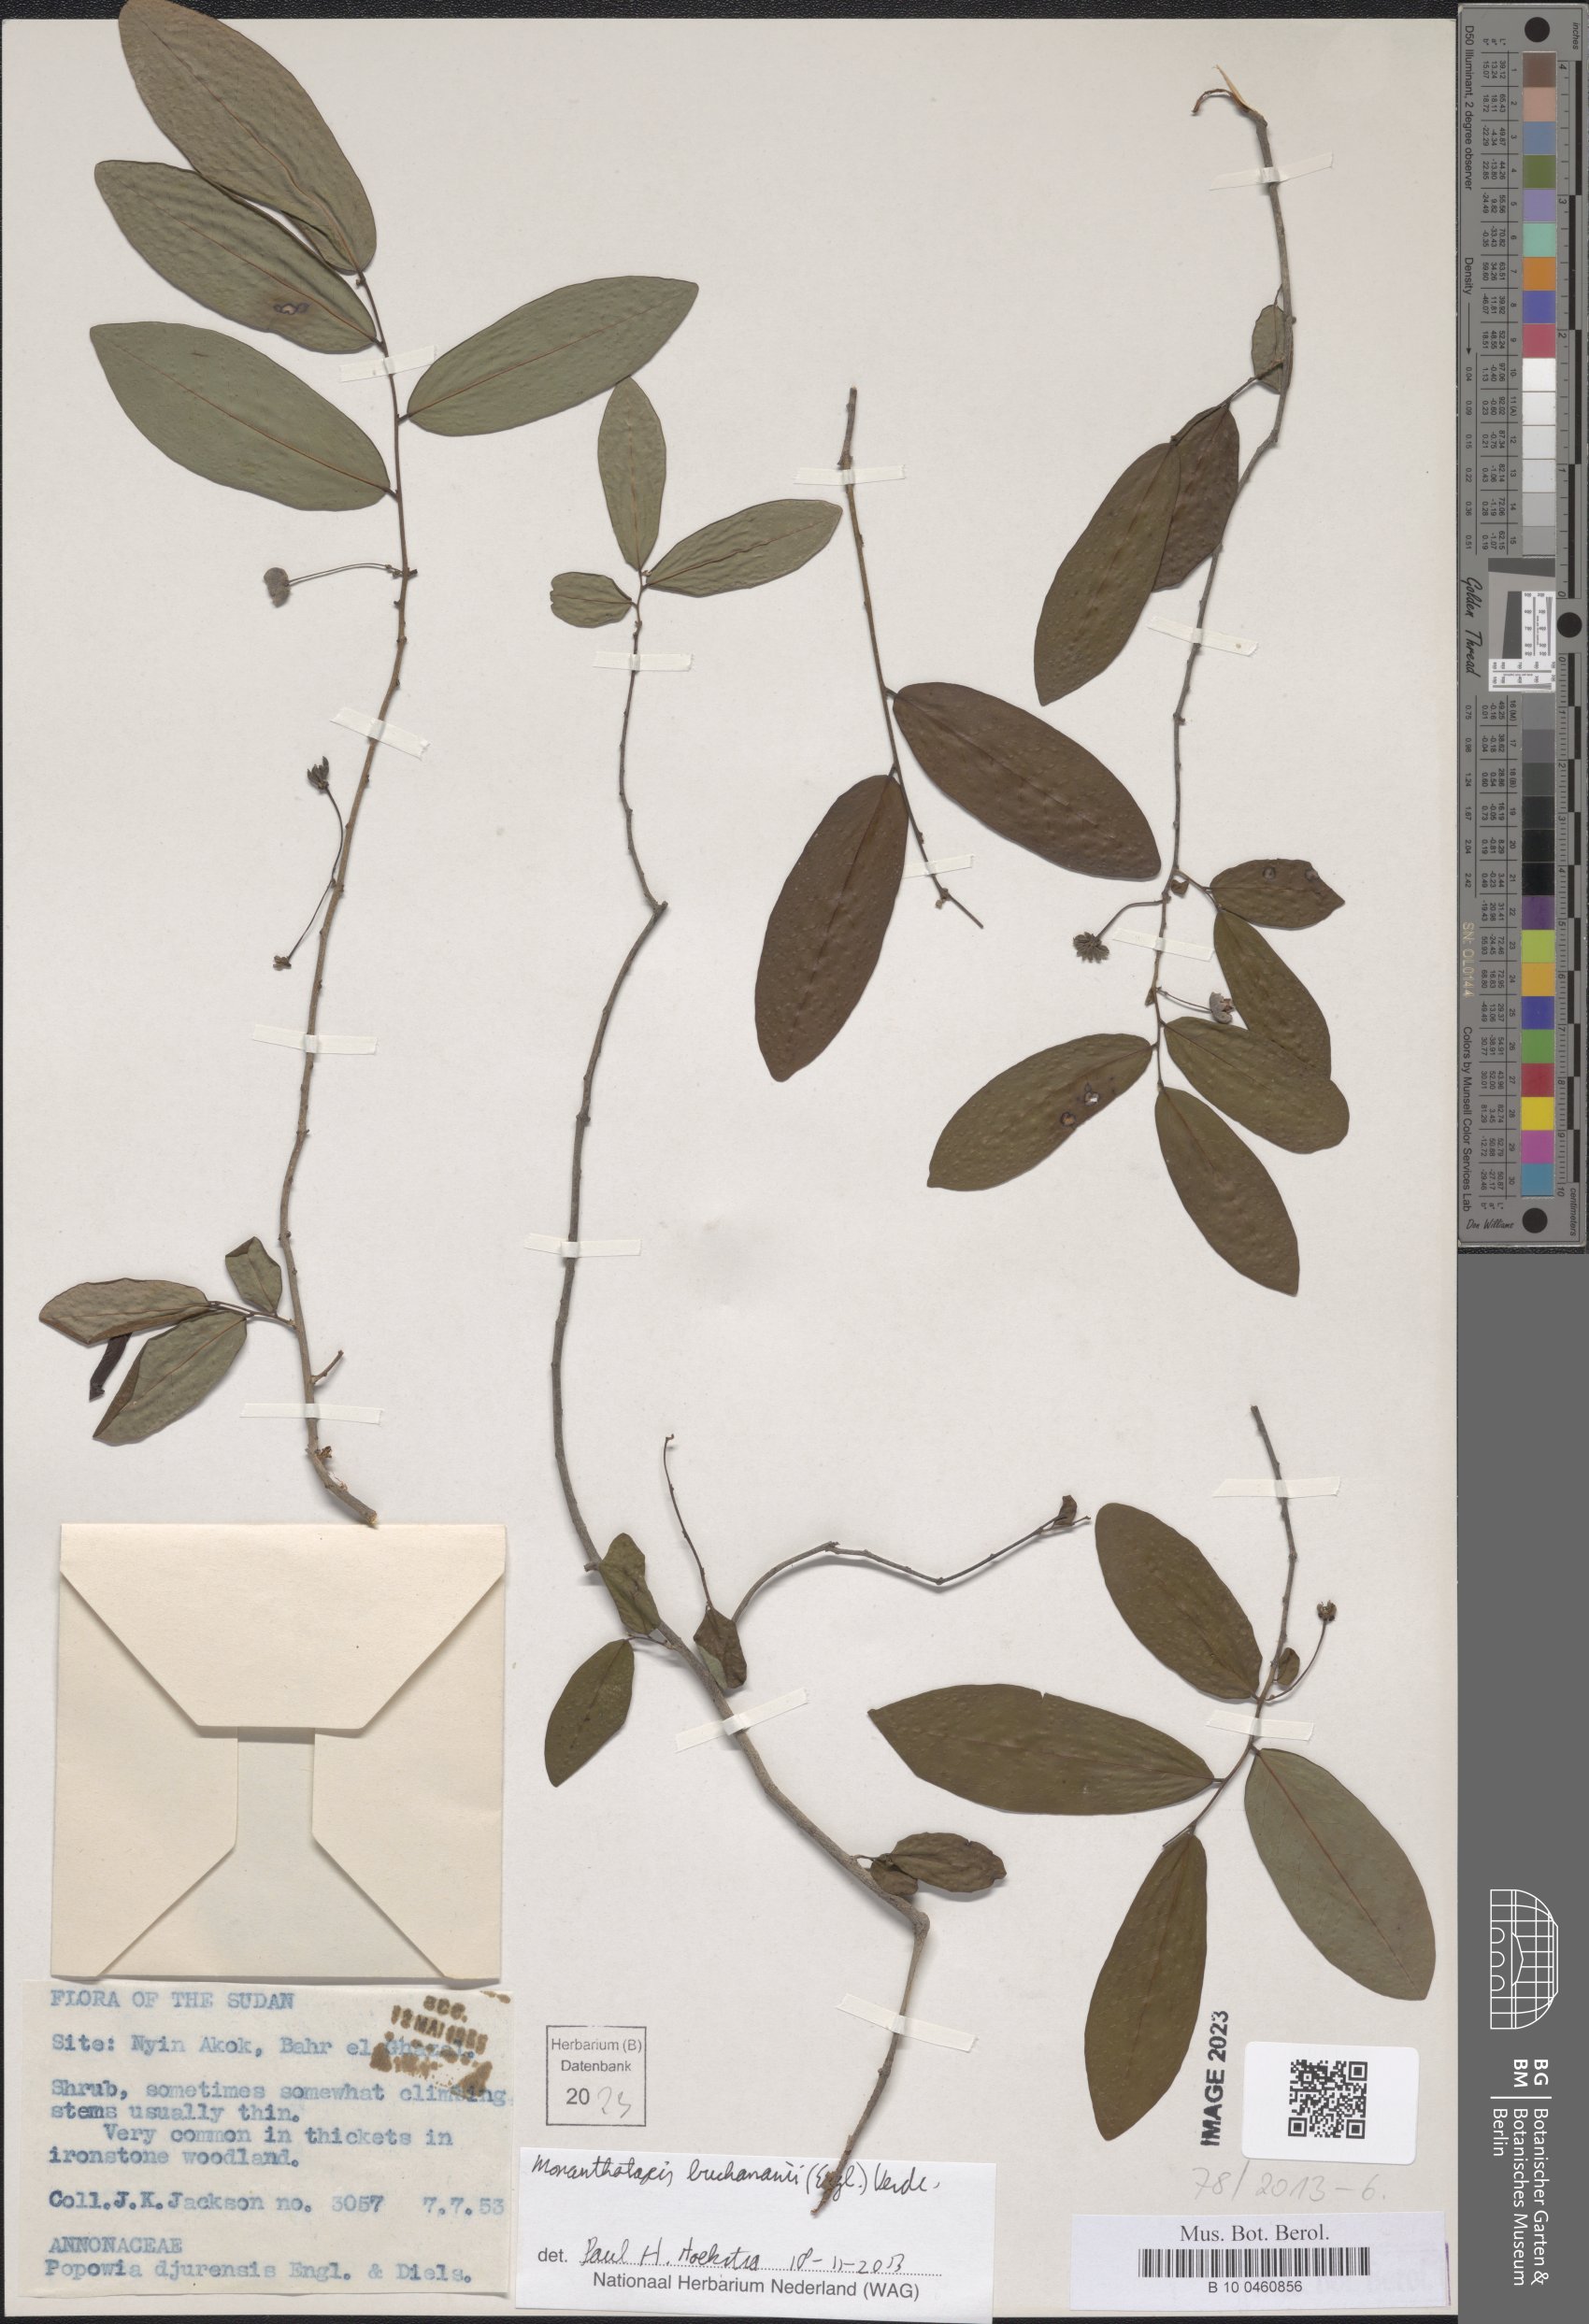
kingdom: Plantae
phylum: Tracheophyta
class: Magnoliopsida
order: Magnoliales
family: Annonaceae
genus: Monanthotaxis
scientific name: Monanthotaxis buchananii
